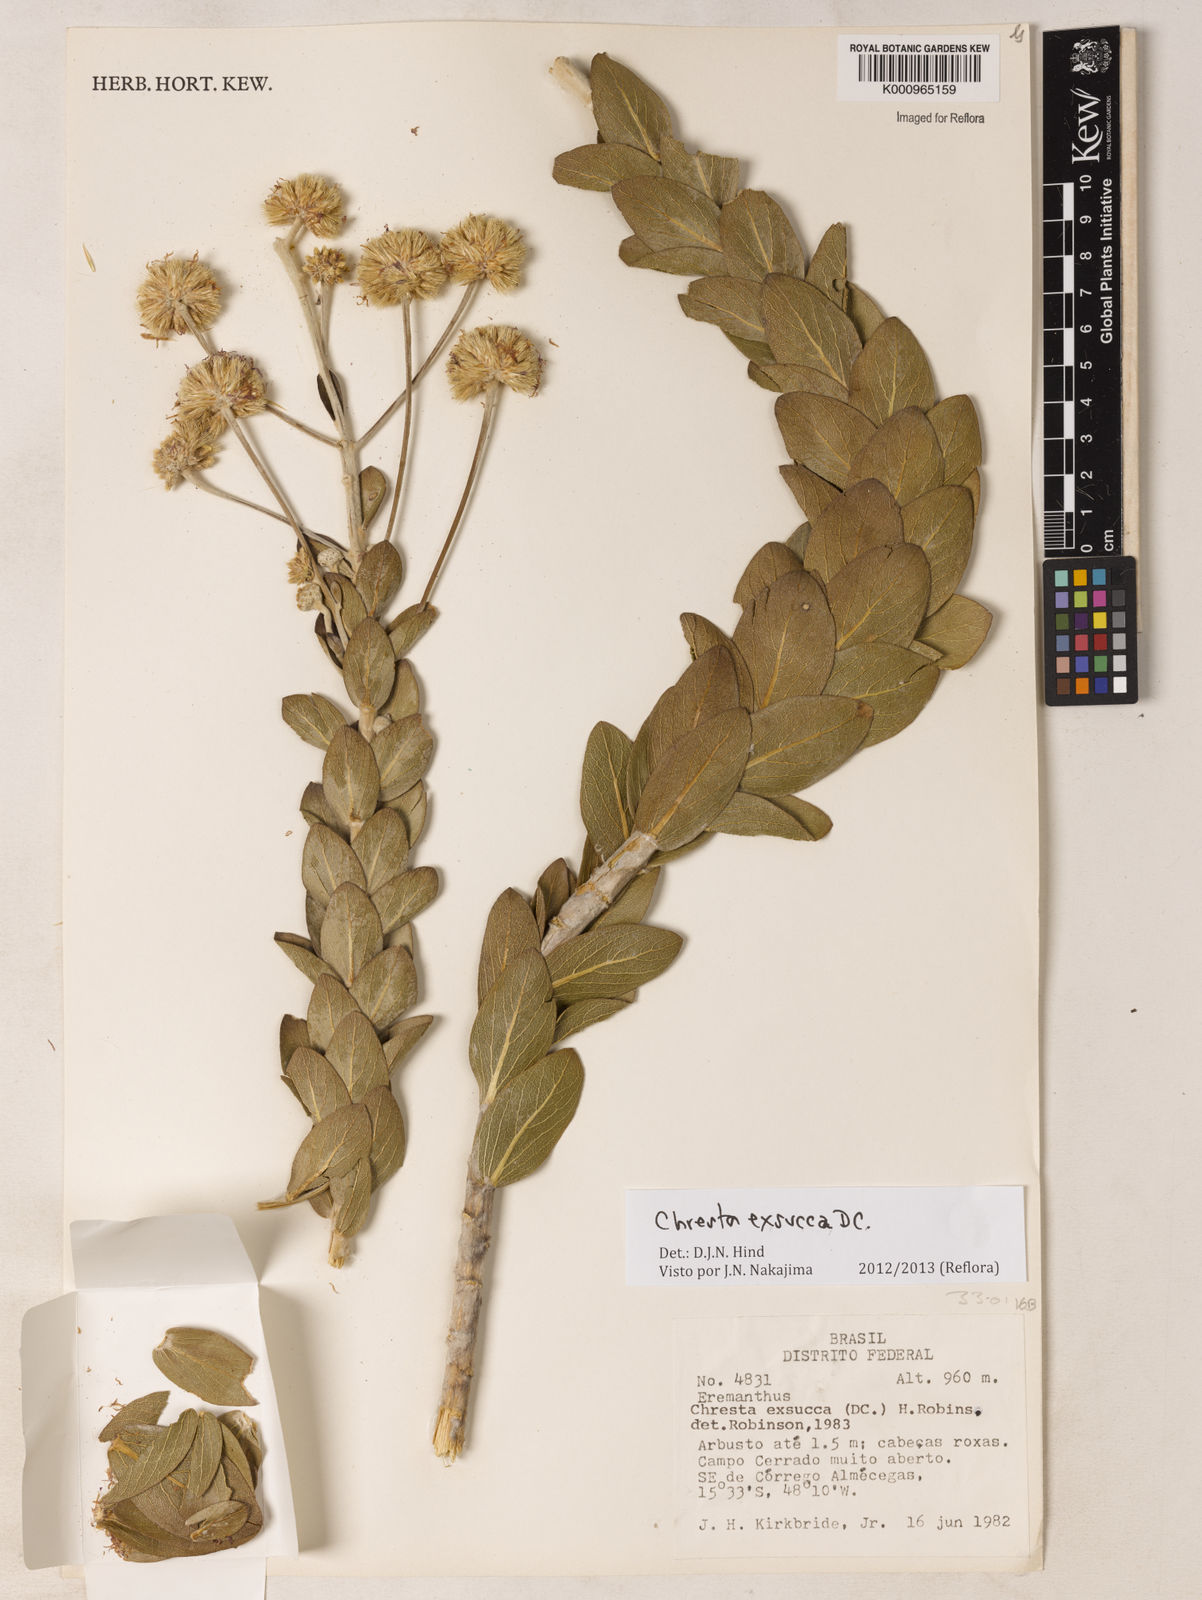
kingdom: Plantae
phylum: Tracheophyta
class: Magnoliopsida
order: Asterales
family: Asteraceae
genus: Chresta
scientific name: Chresta exsucca
